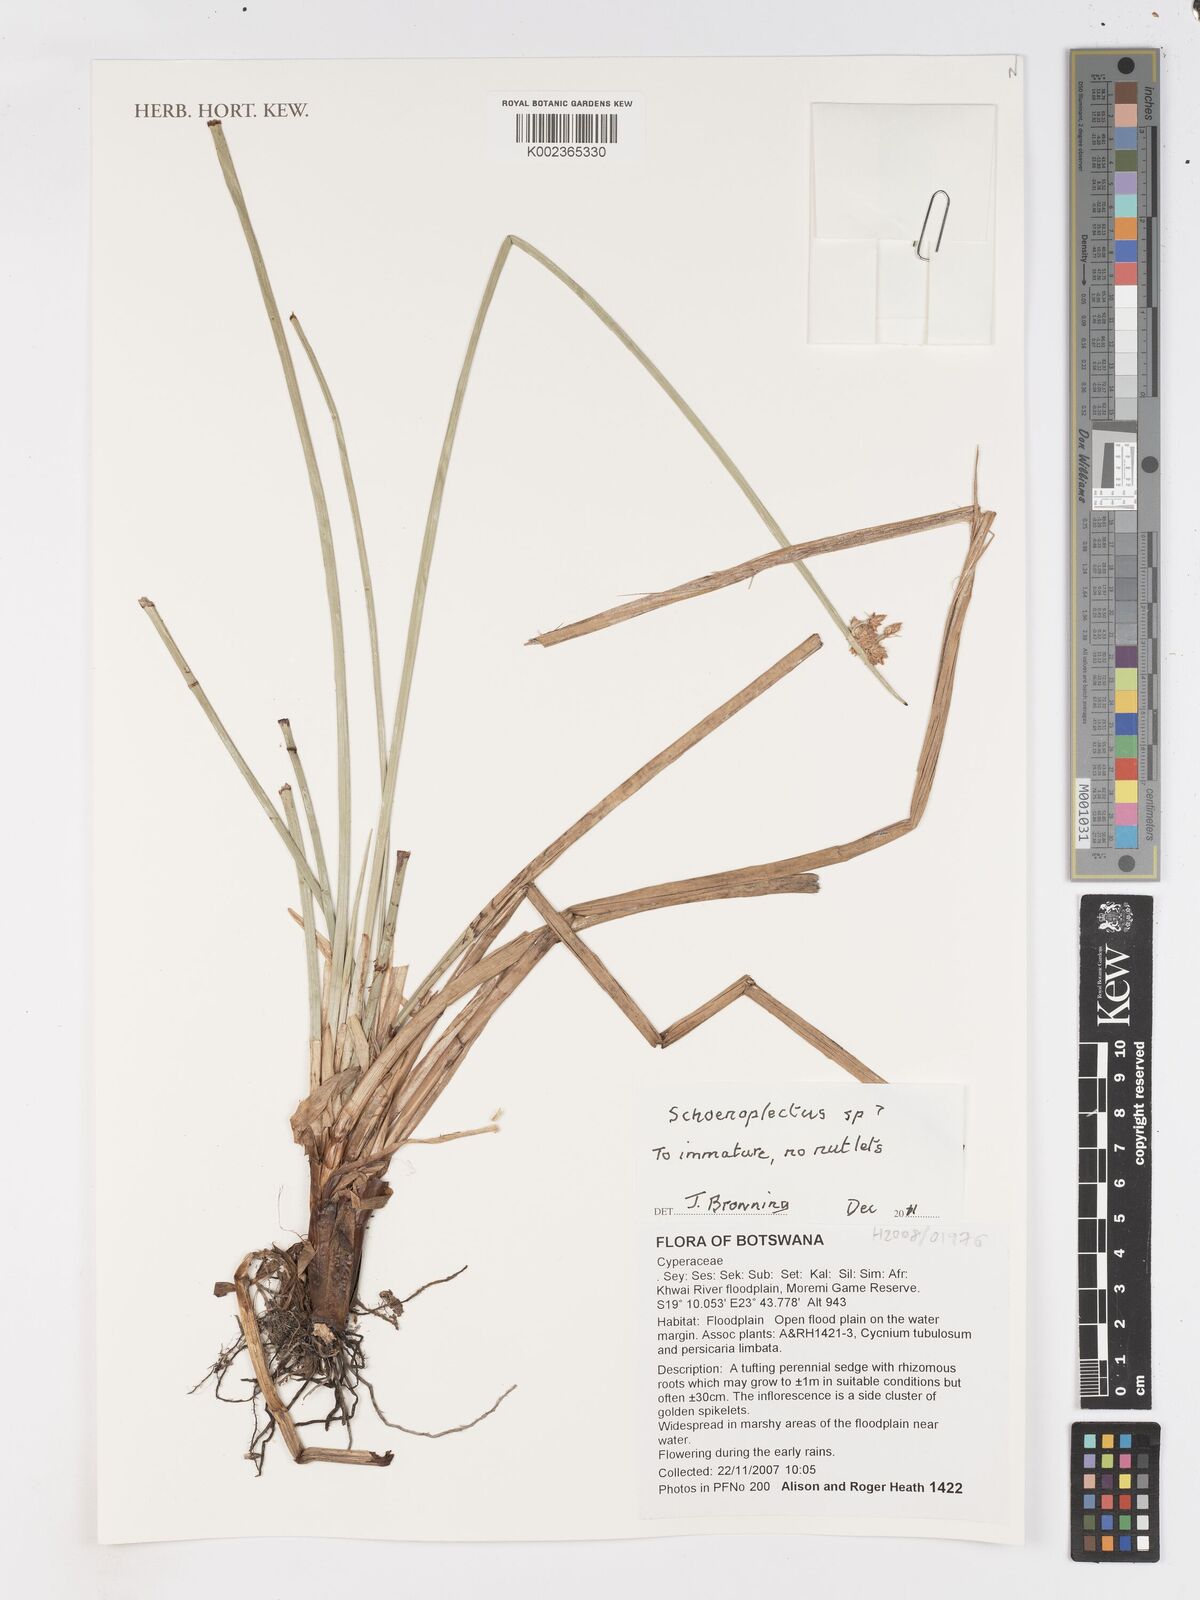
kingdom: Plantae
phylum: Tracheophyta
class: Liliopsida
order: Poales
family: Cyperaceae
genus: Schoenoplectus
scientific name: Schoenoplectus
